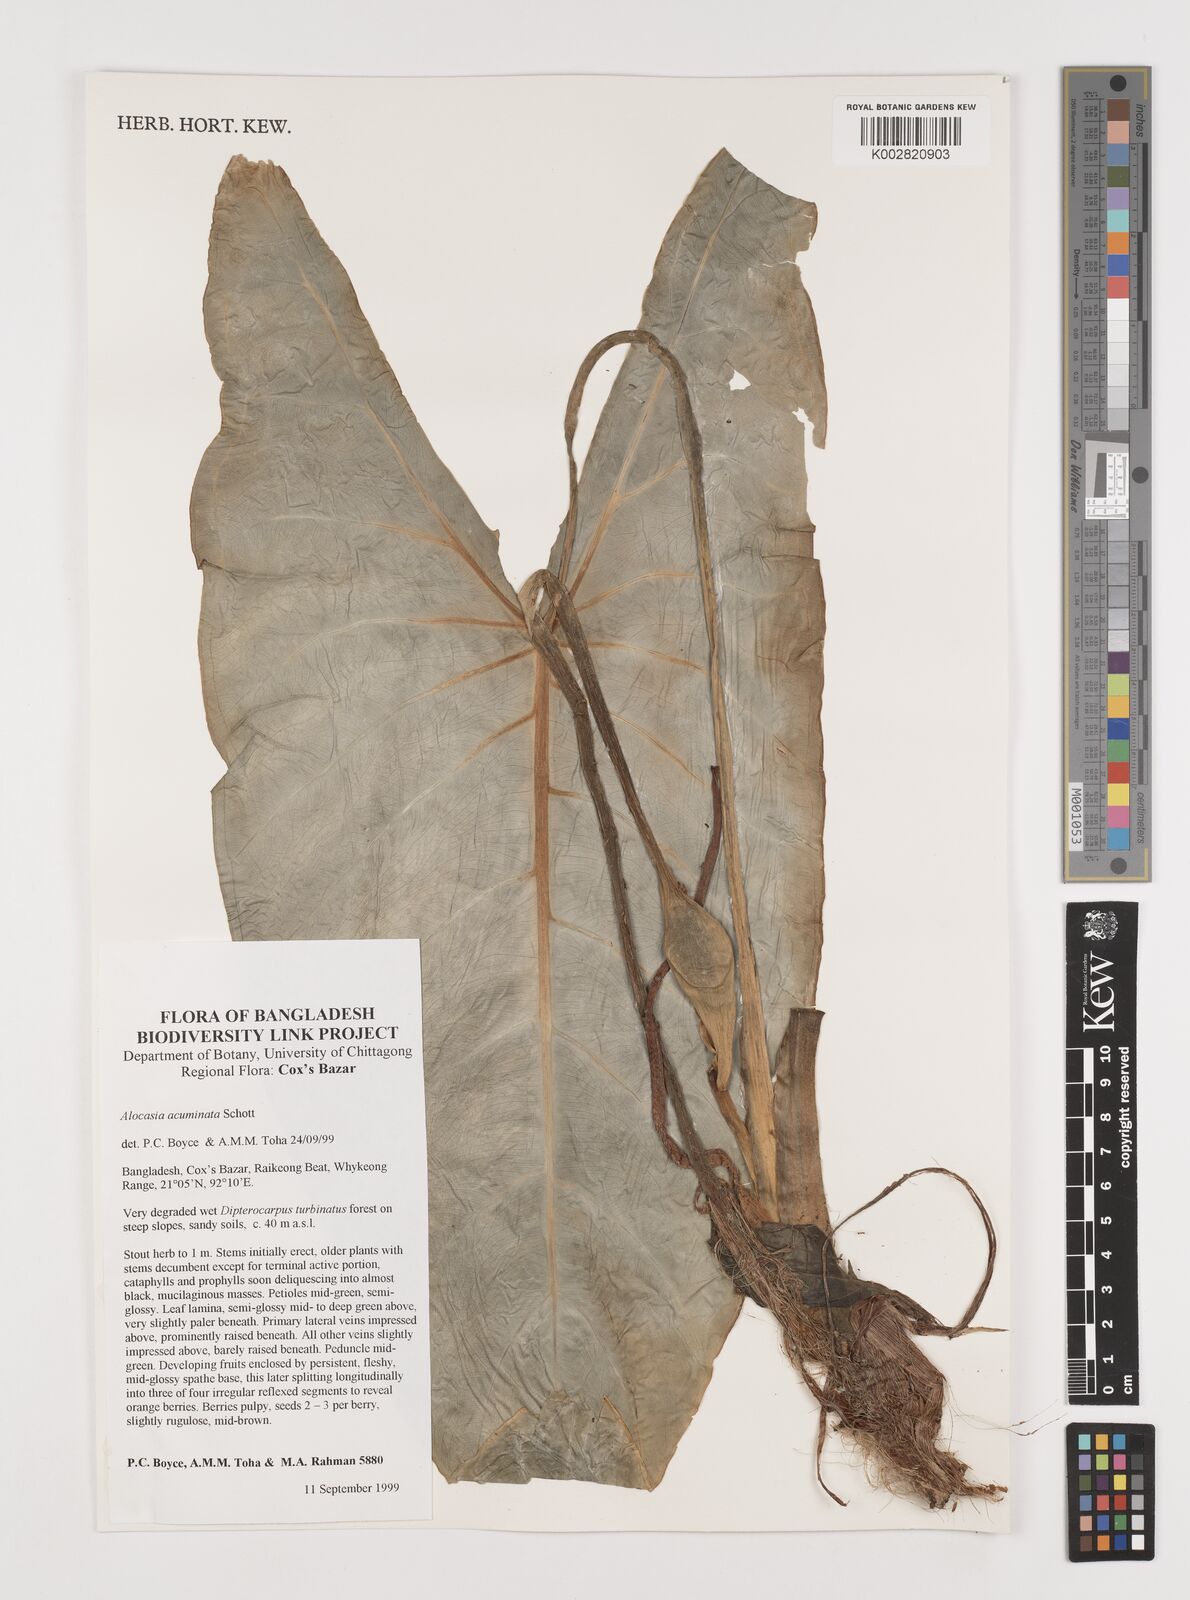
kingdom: Plantae
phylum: Tracheophyta
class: Liliopsida
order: Alismatales
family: Araceae
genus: Alocasia
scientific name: Alocasia acuminata
